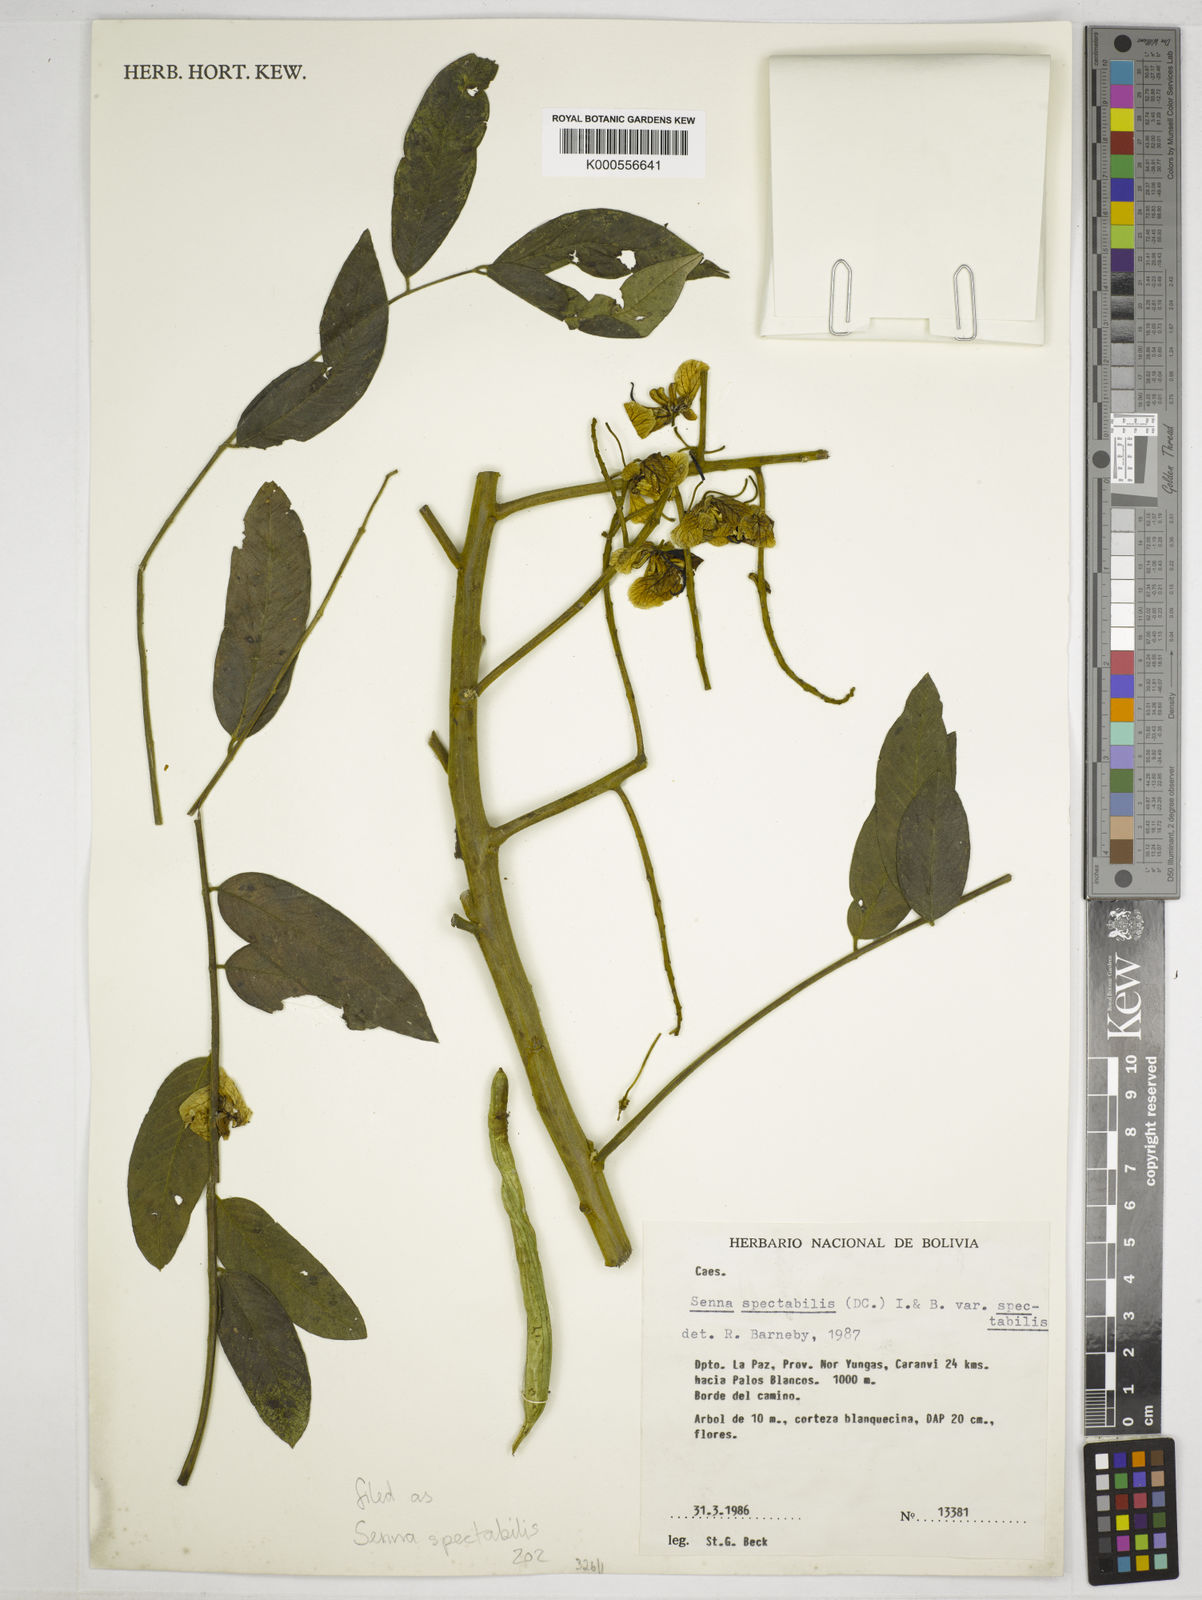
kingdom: Plantae
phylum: Tracheophyta
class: Magnoliopsida
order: Fabales
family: Fabaceae
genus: Senna
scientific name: Senna spectabilis
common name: Casia amarilla
